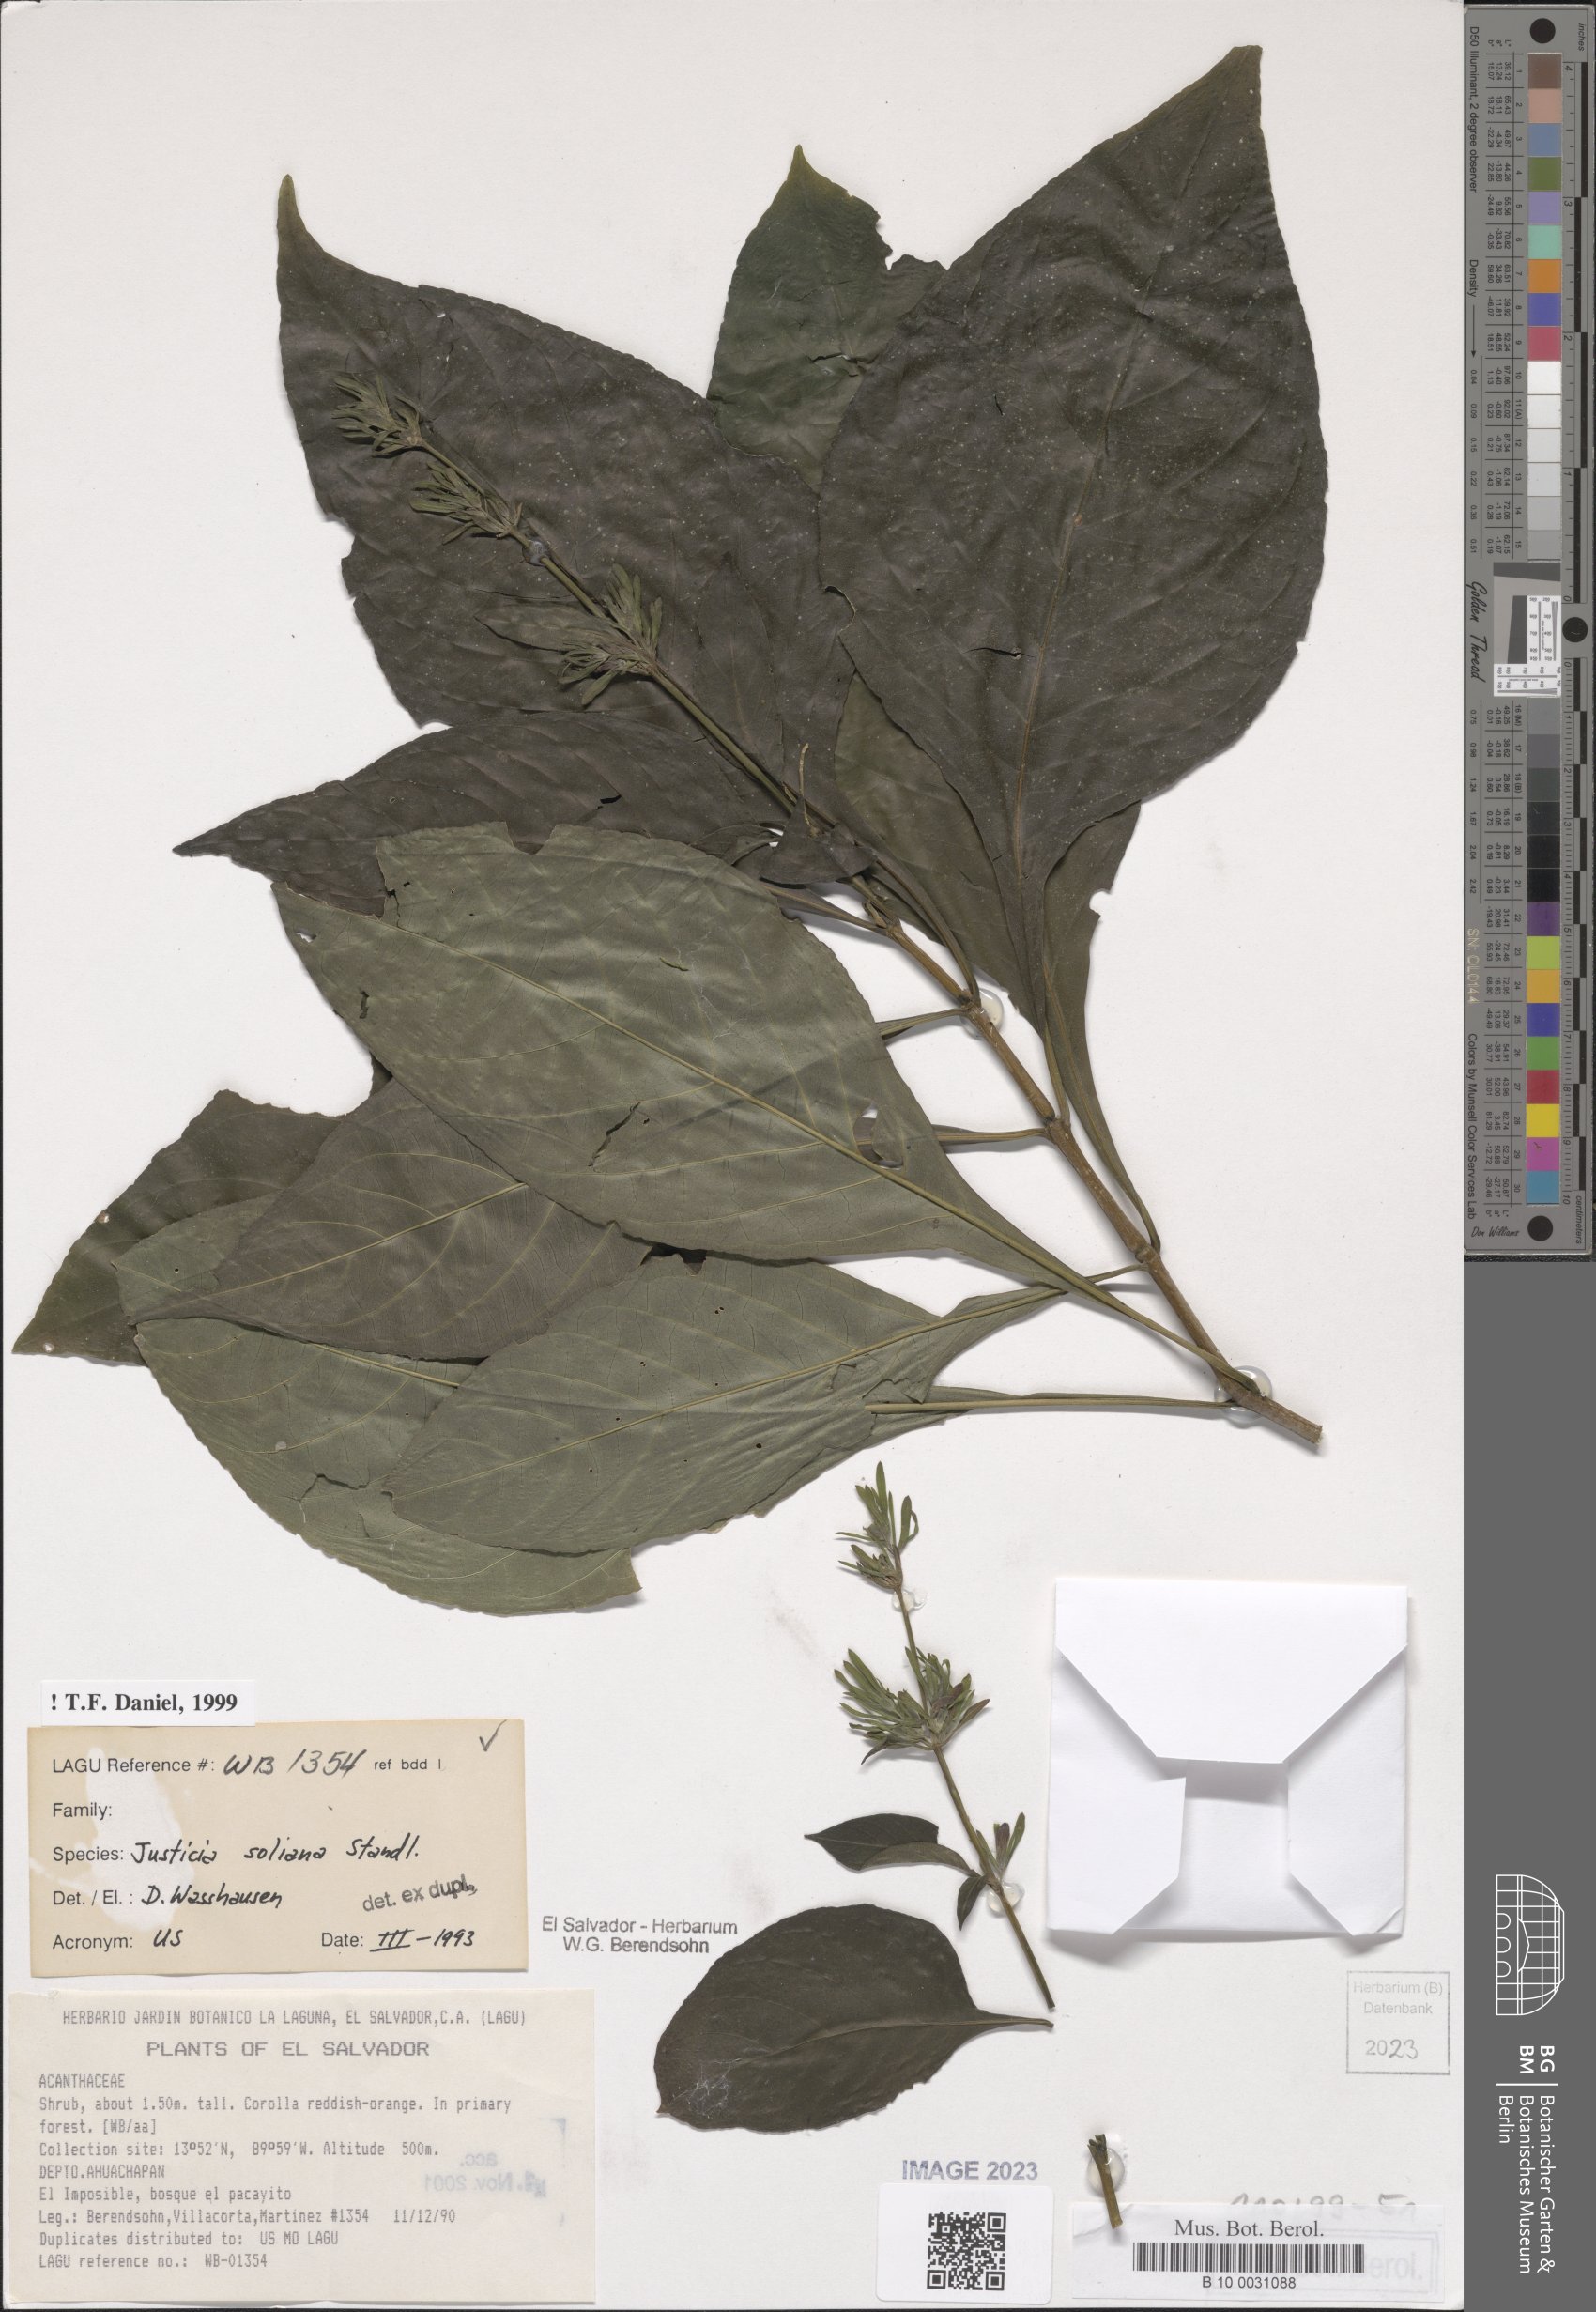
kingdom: Plantae
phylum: Tracheophyta
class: Magnoliopsida
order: Lamiales
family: Acanthaceae
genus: Justicia
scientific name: Justicia soliana
